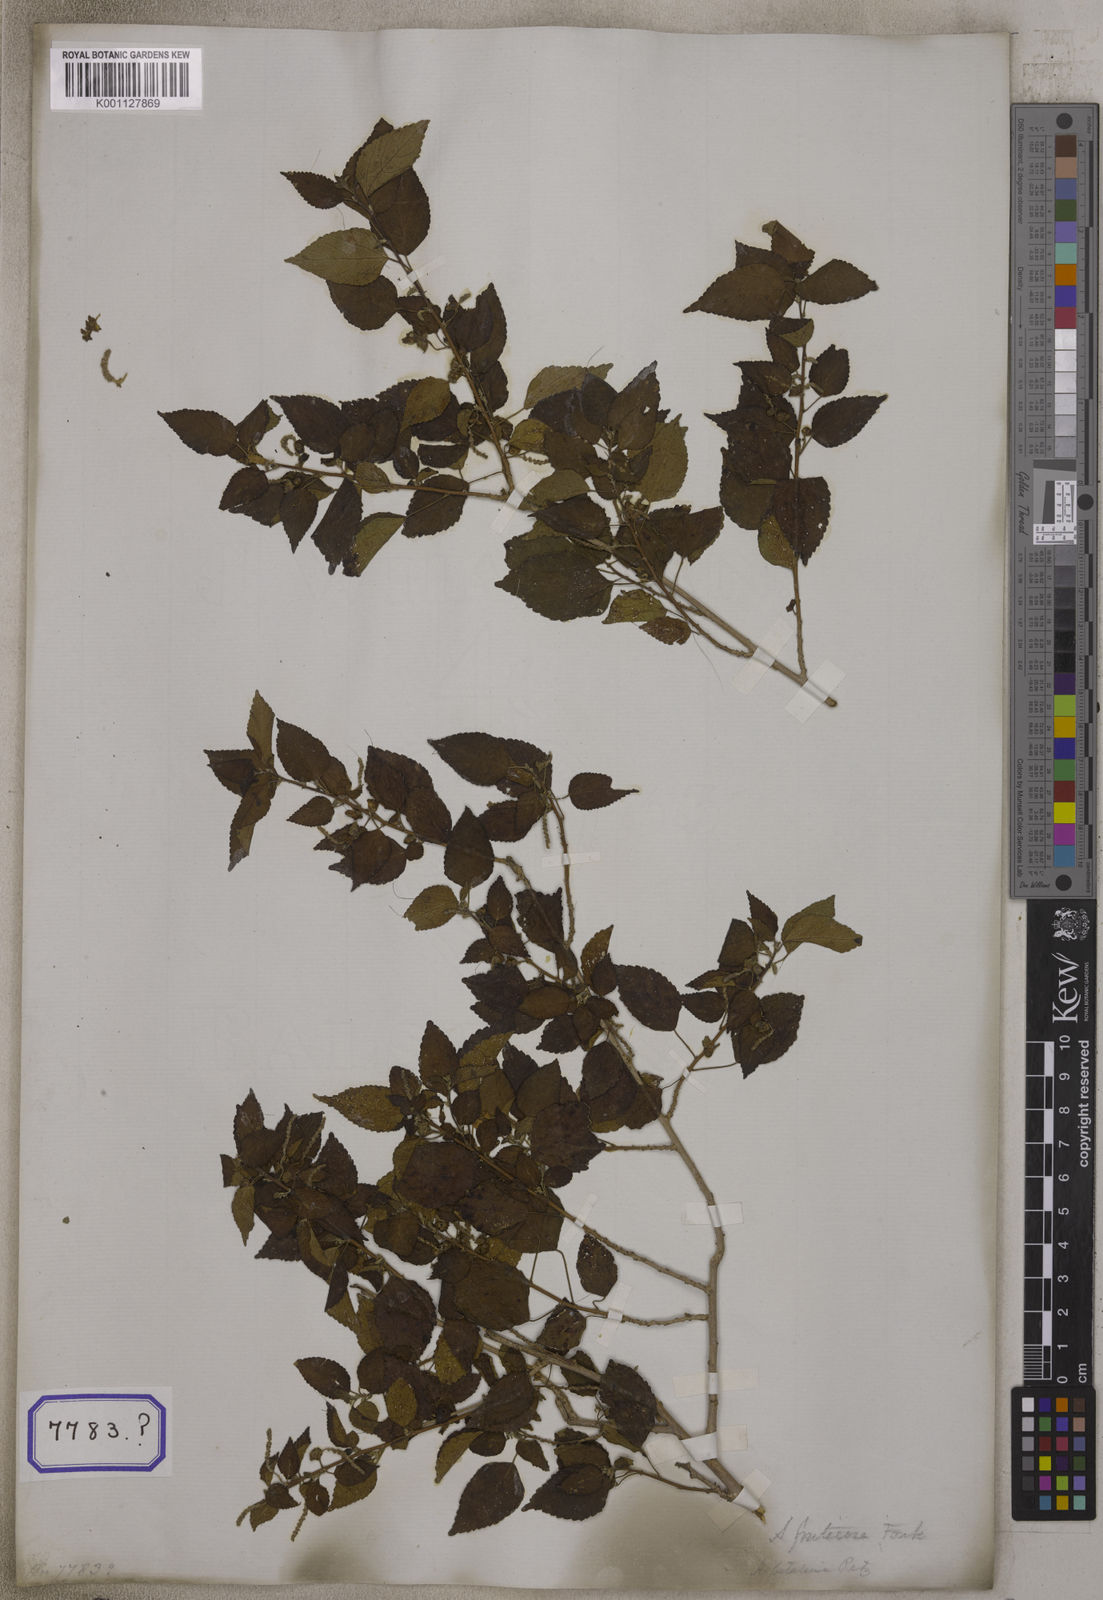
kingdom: Plantae
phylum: Tracheophyta
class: Magnoliopsida
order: Malpighiales
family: Euphorbiaceae
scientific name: Euphorbiaceae
